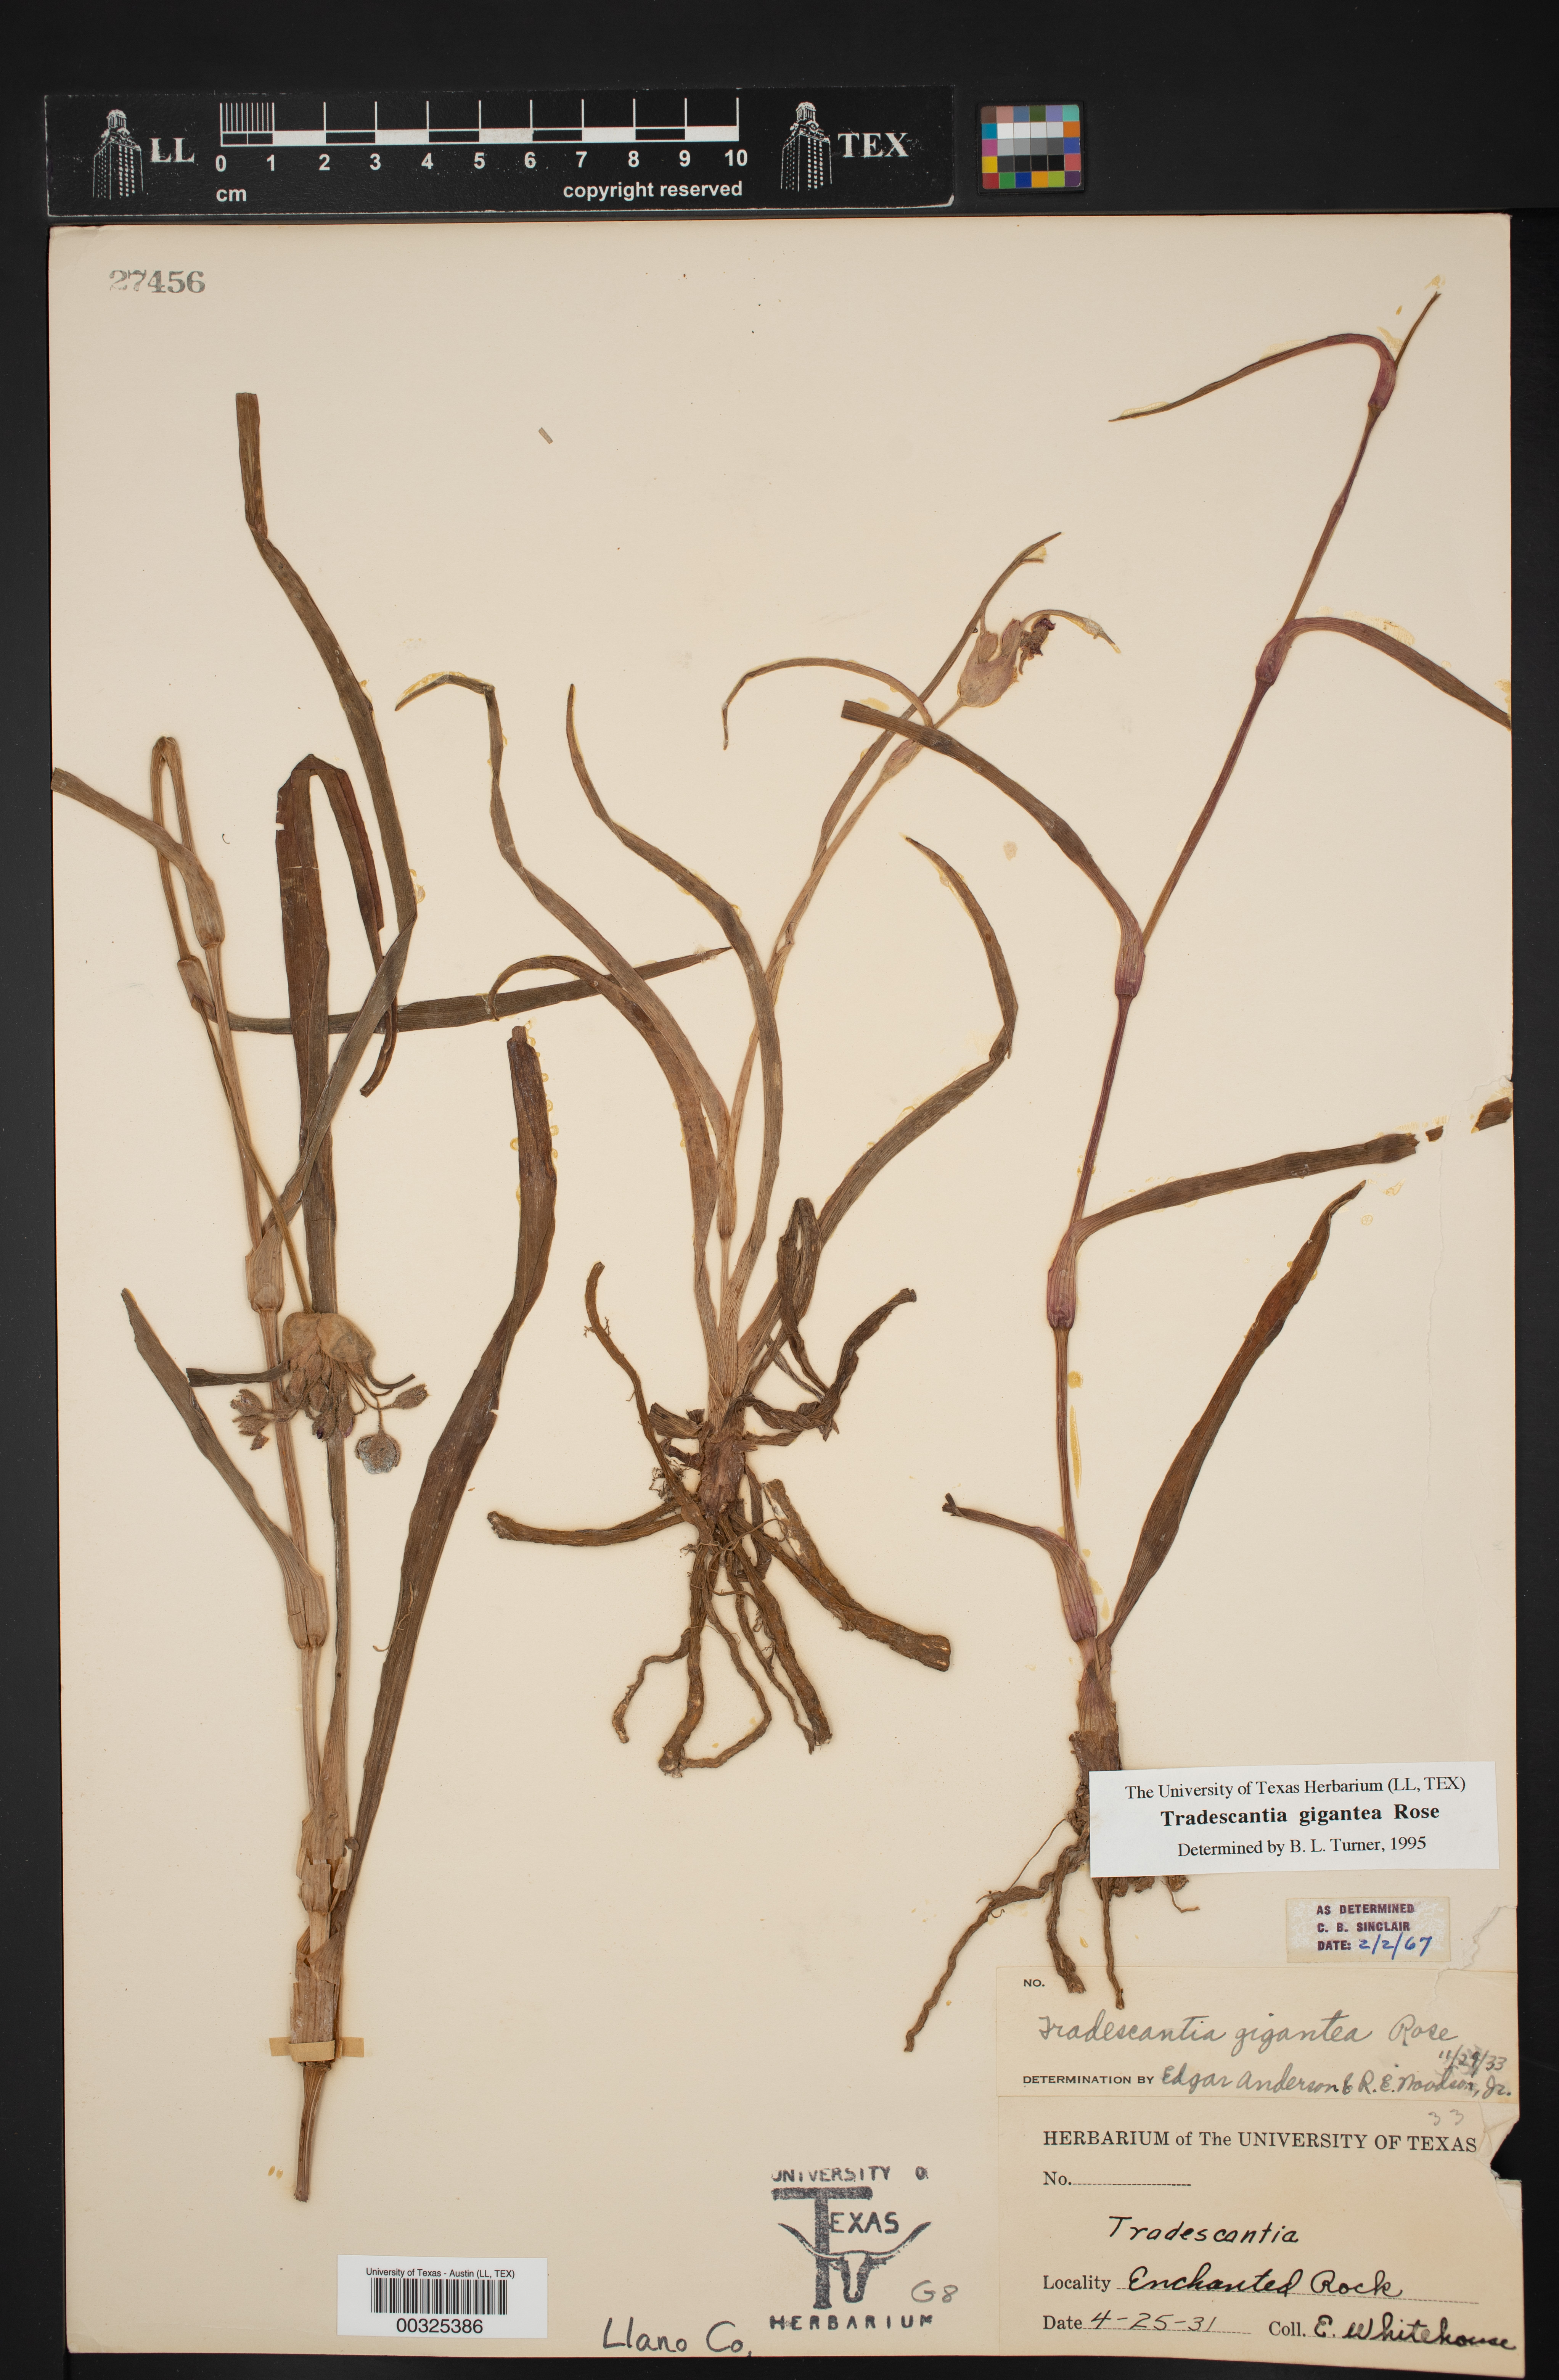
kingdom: Plantae
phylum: Tracheophyta
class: Liliopsida
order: Commelinales
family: Commelinaceae
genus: Tradescantia
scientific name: Tradescantia gigantea
